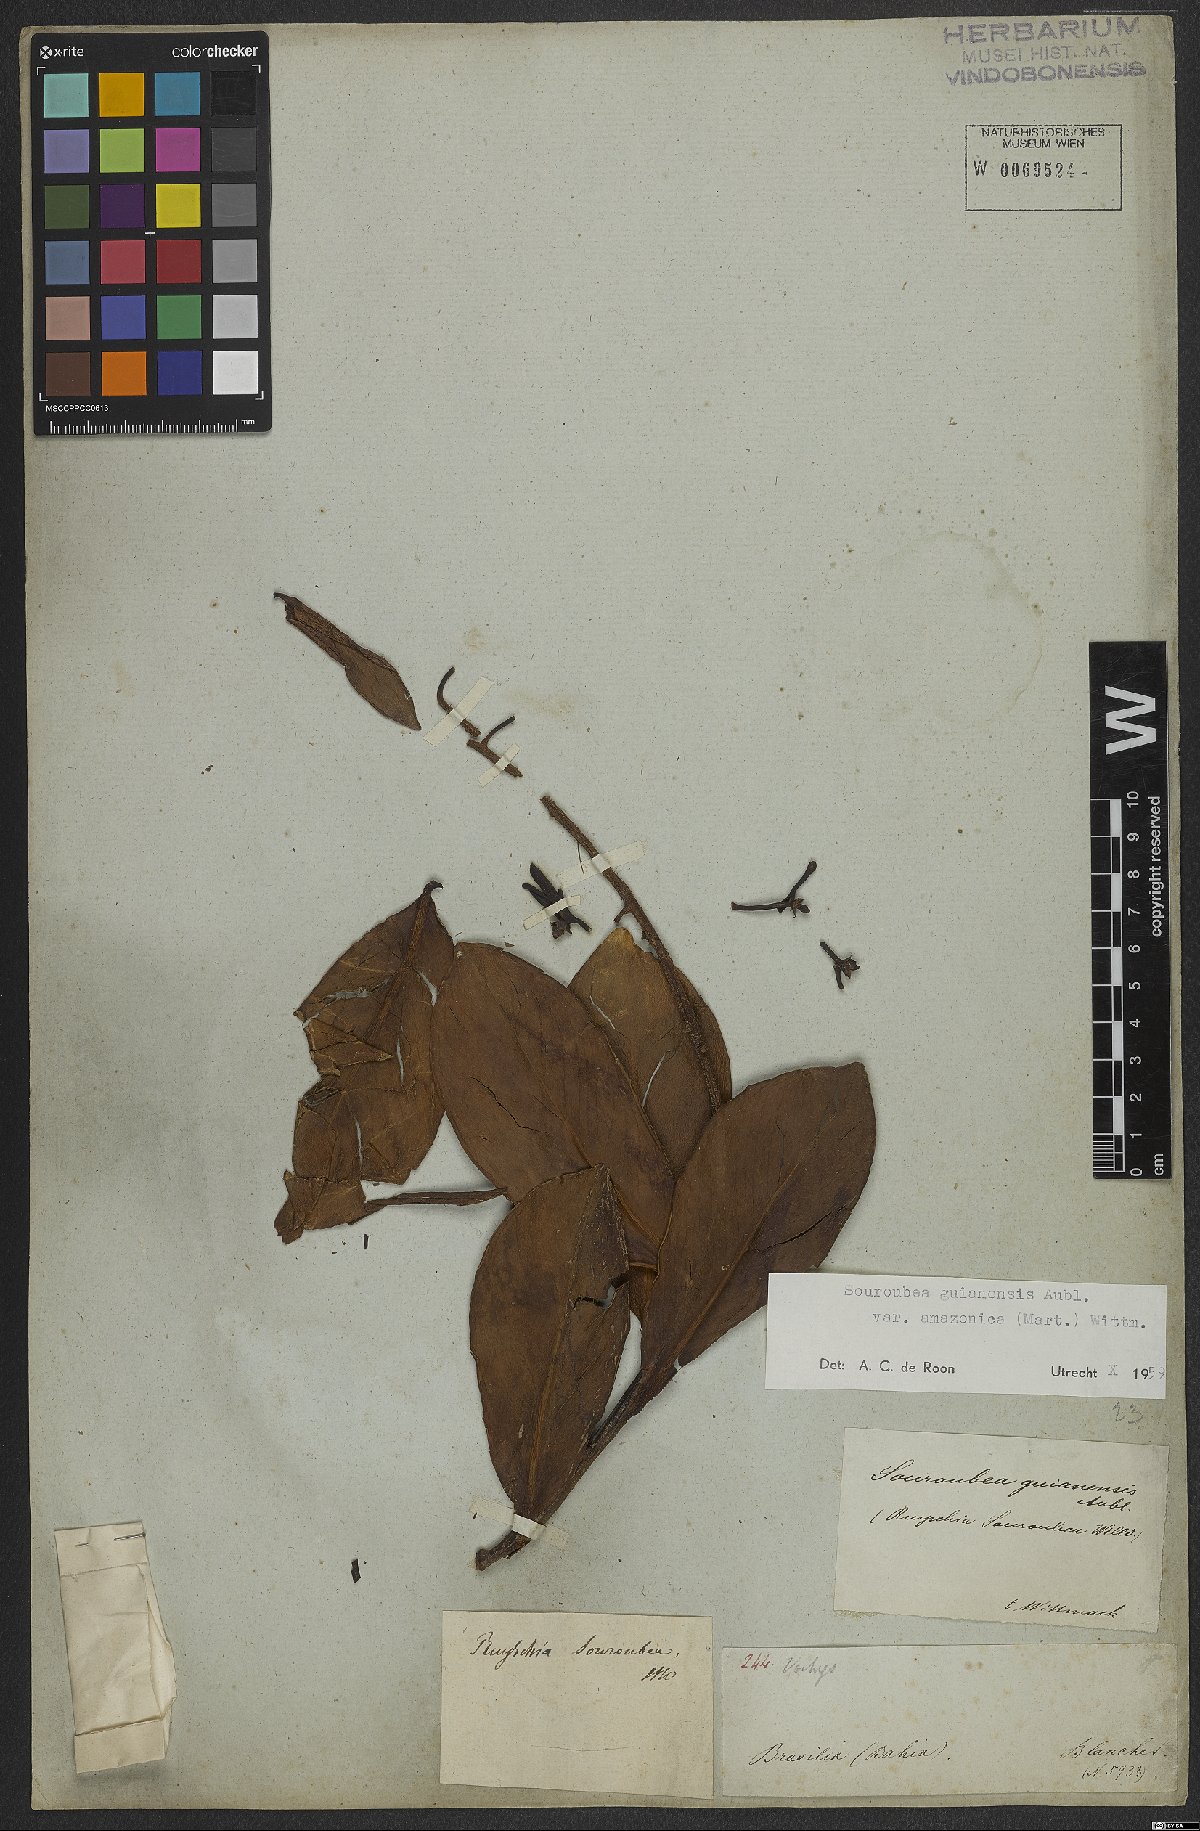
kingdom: Plantae
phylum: Tracheophyta
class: Magnoliopsida
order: Ericales
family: Marcgraviaceae
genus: Souroubea
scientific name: Souroubea guianensis
